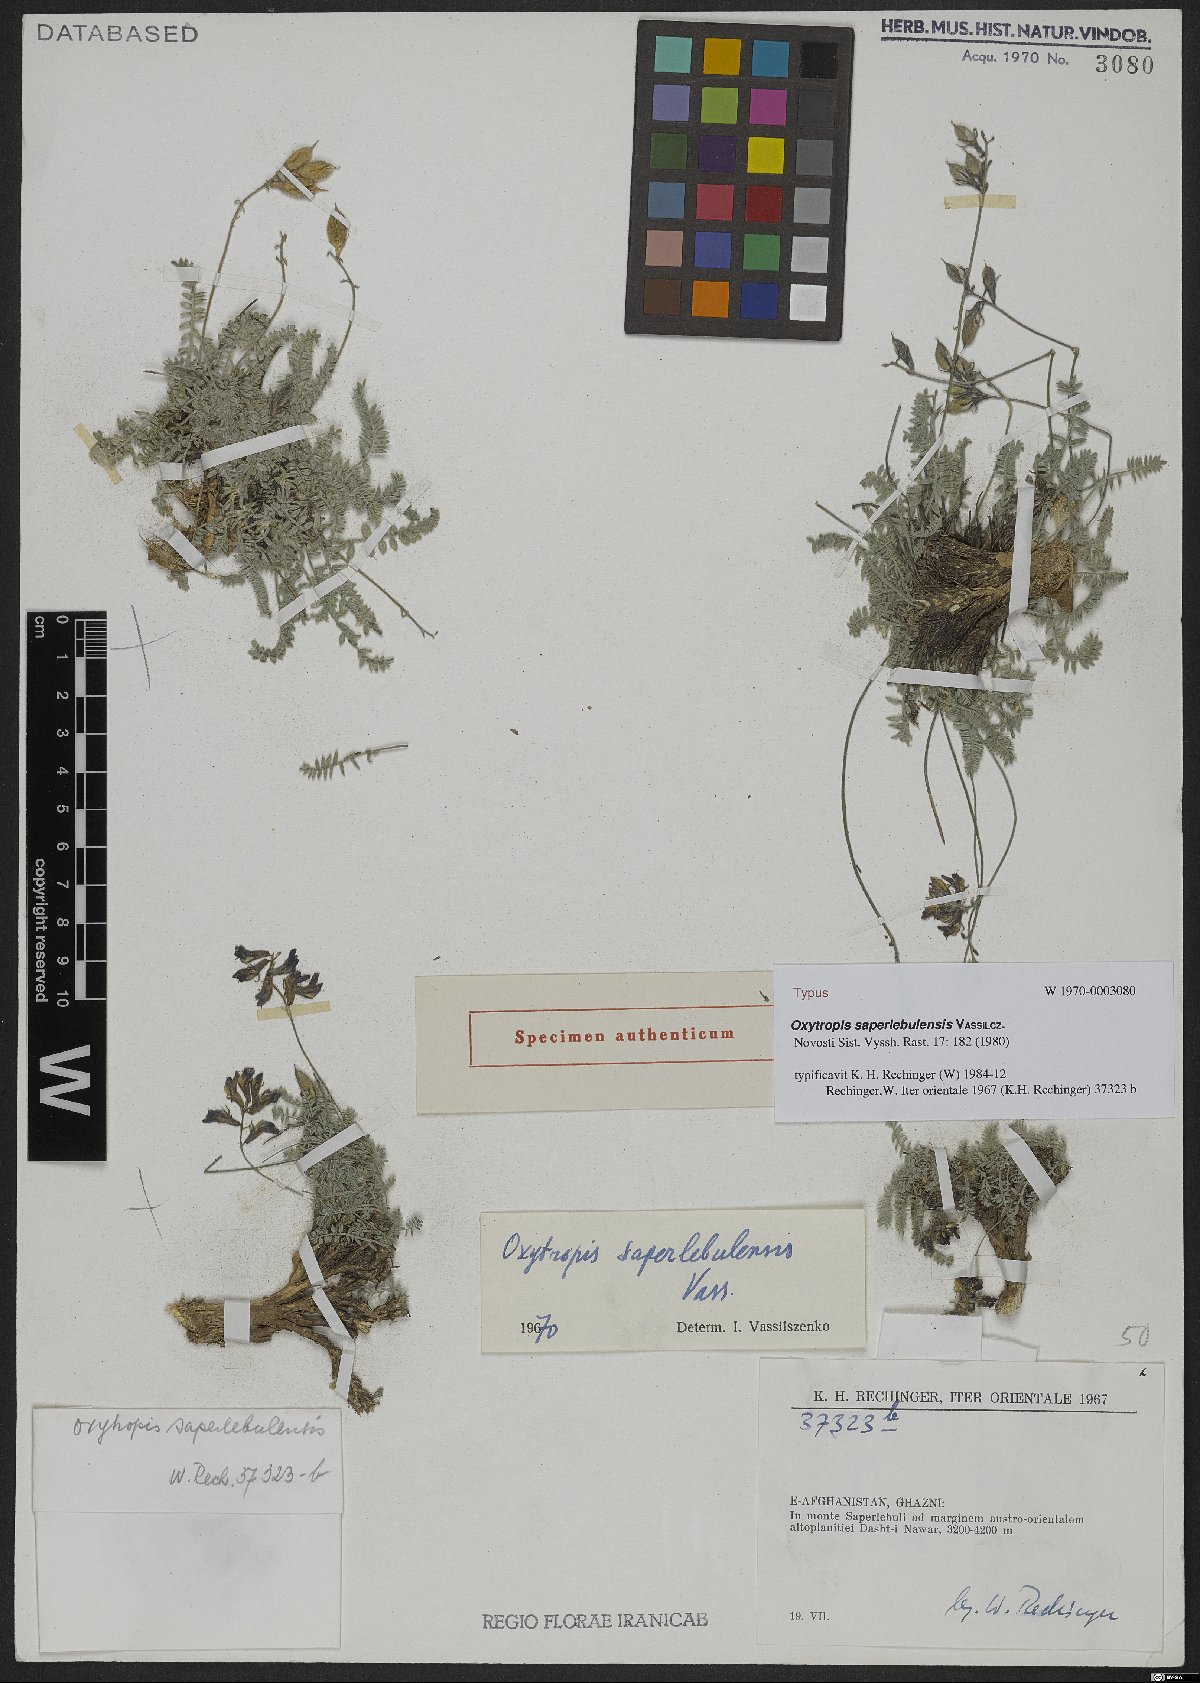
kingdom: Plantae
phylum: Tracheophyta
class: Magnoliopsida
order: Fabales
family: Fabaceae
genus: Oxytropis
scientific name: Oxytropis saperlebulensis
